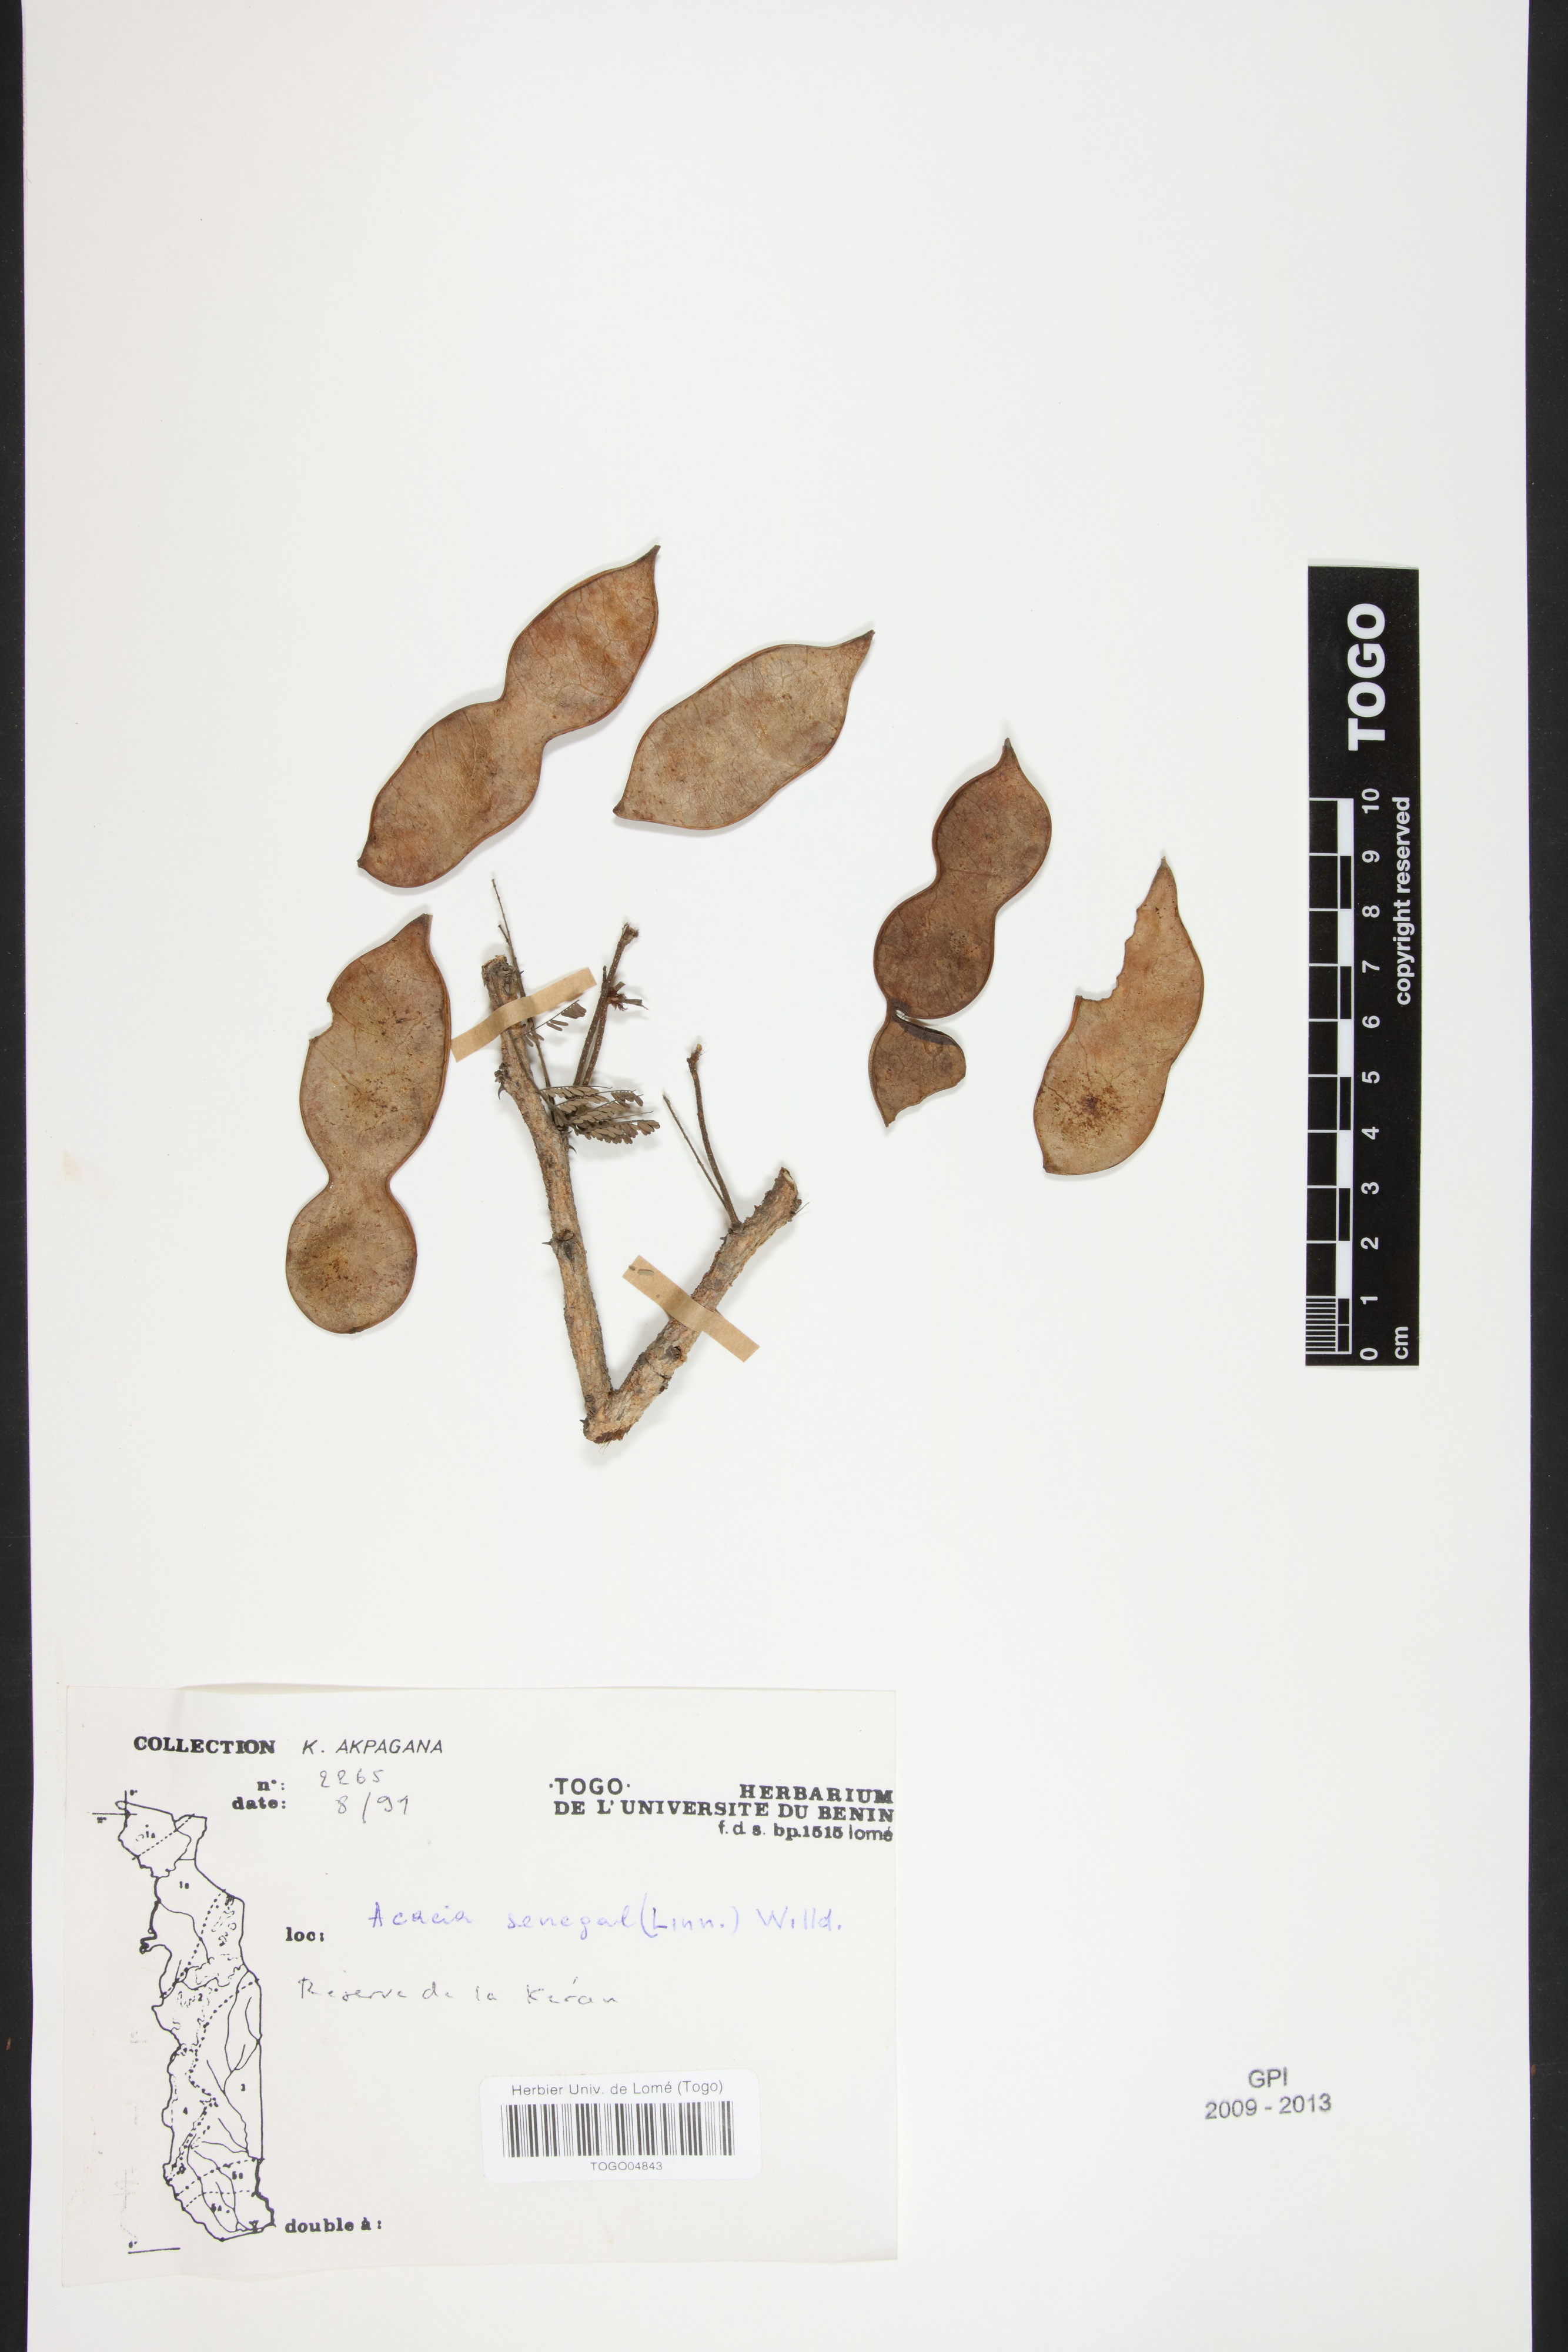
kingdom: Plantae
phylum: Tracheophyta
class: Magnoliopsida
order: Fabales
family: Fabaceae
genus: Senegalia
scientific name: Senegalia senegal
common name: Senegal-gum
